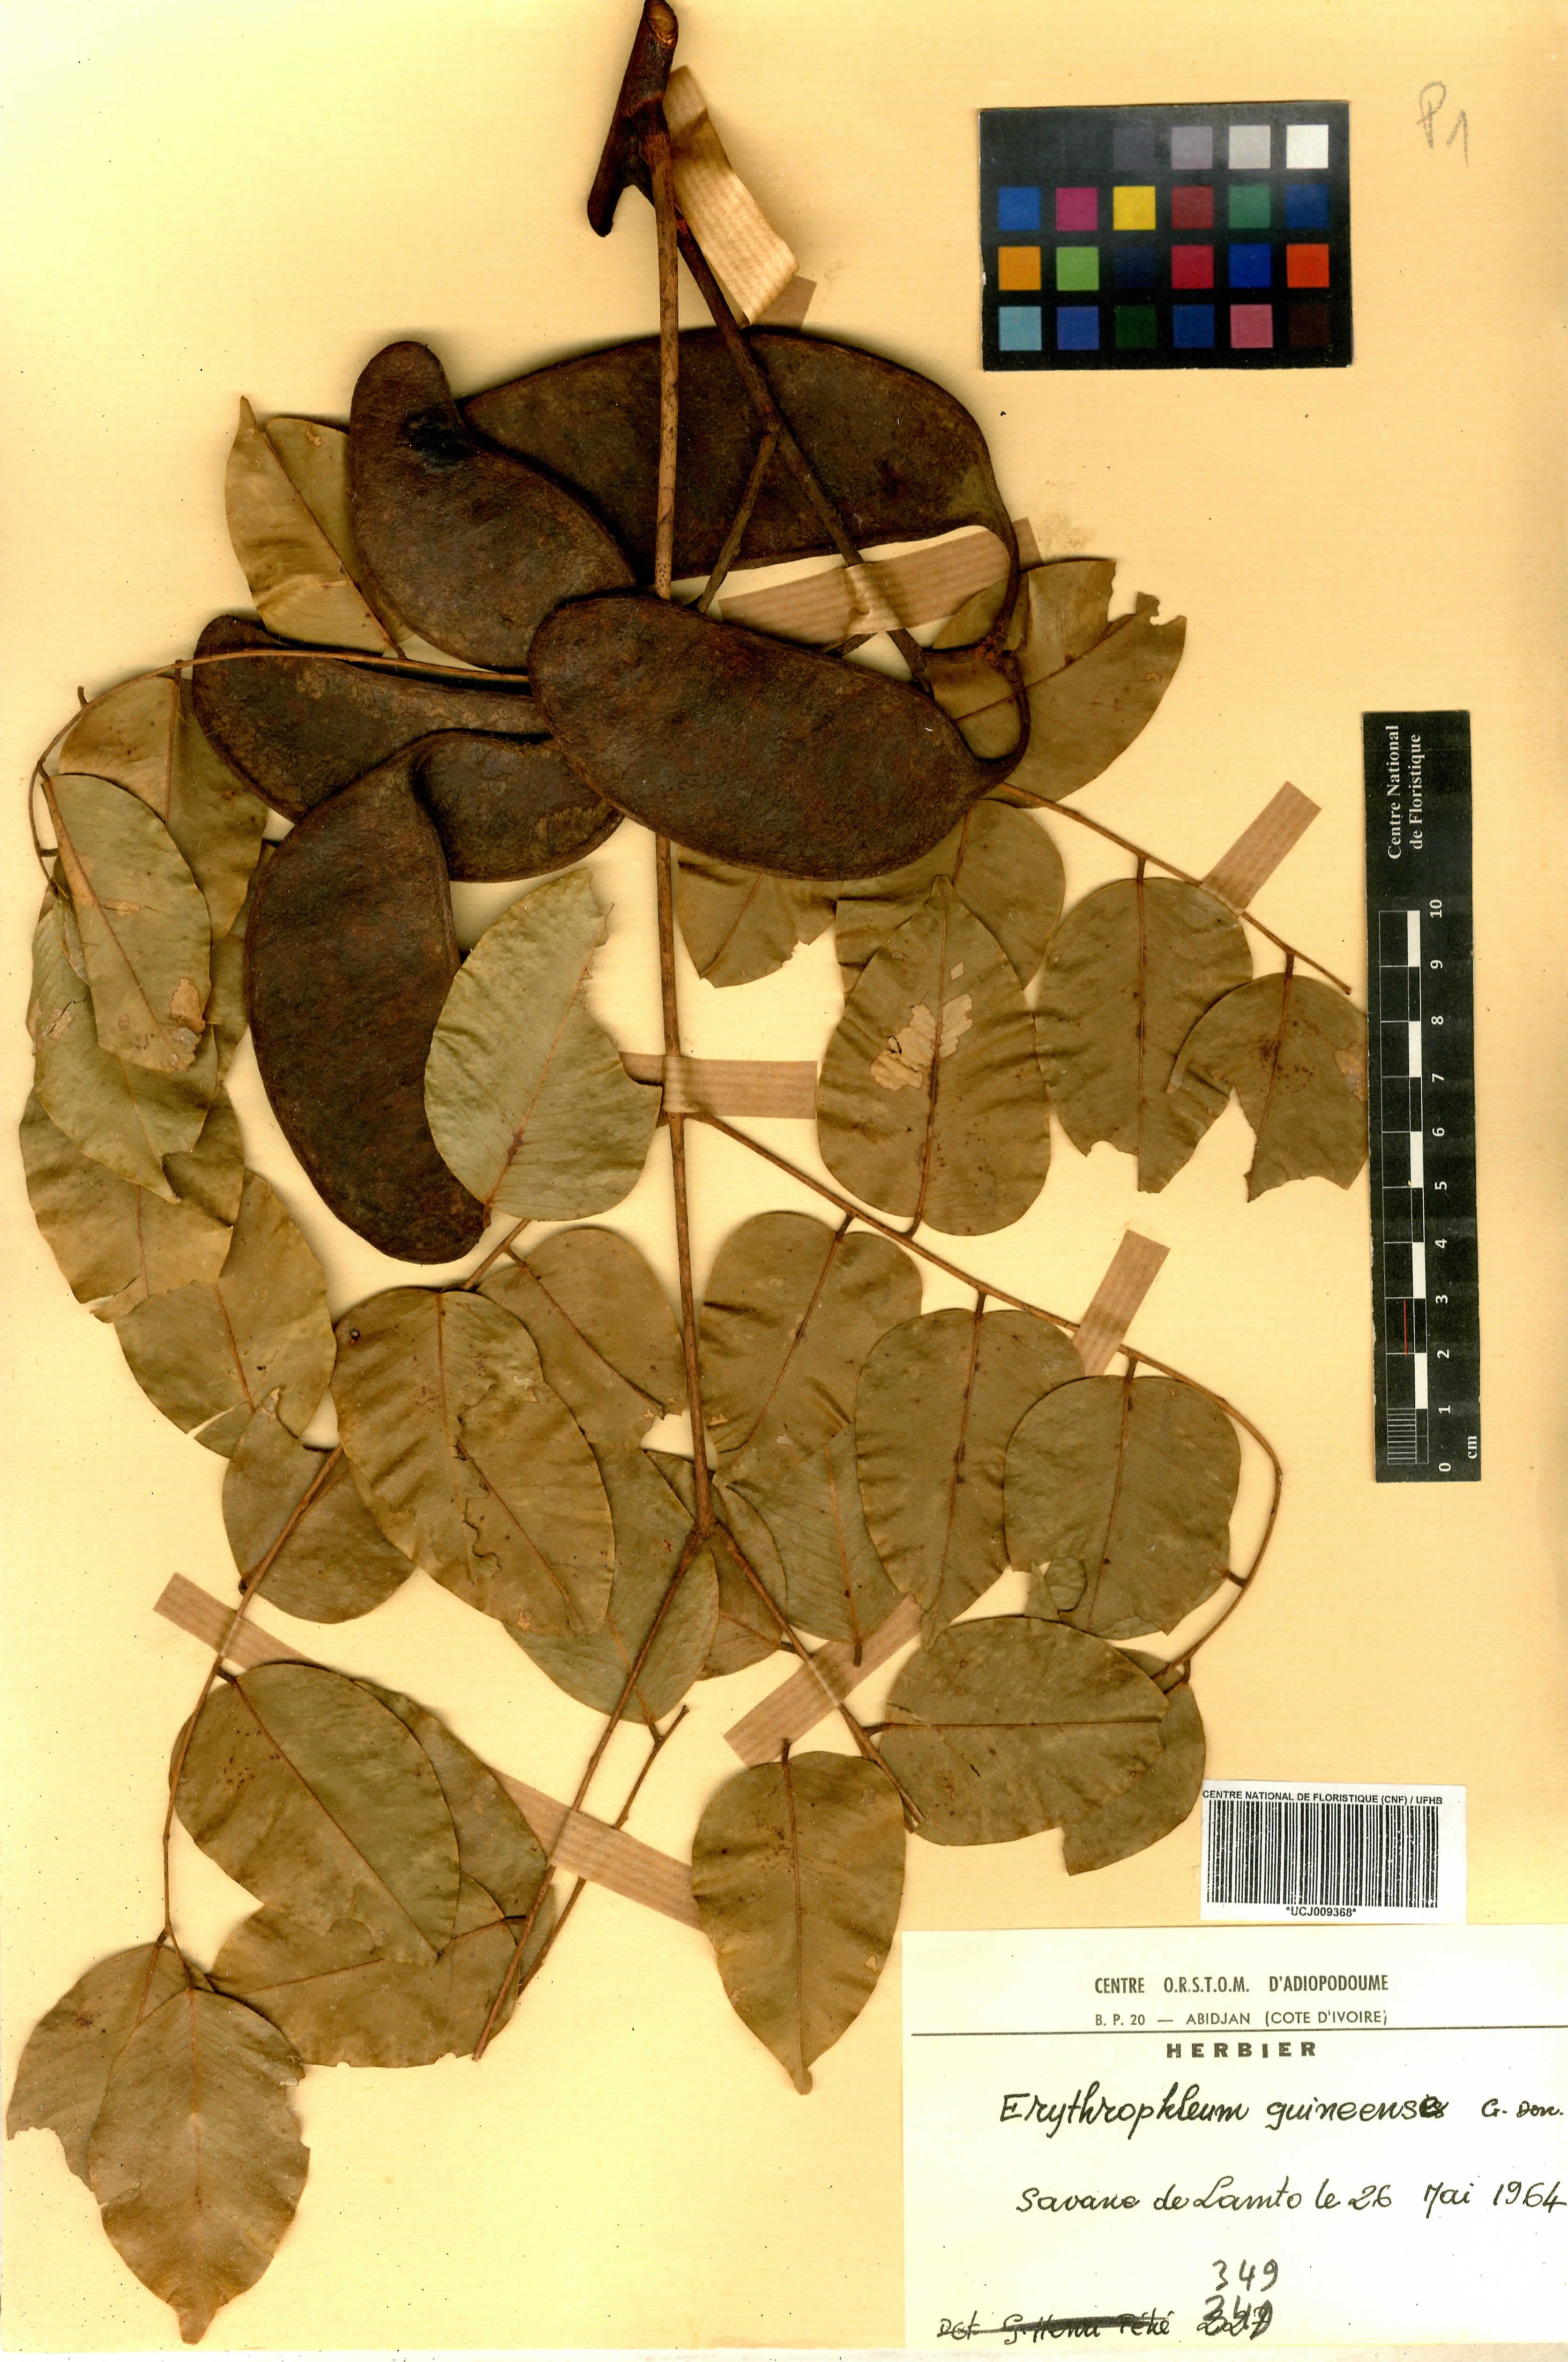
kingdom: Plantae
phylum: Tracheophyta
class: Magnoliopsida
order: Fabales
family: Fabaceae
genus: Erythrophleum
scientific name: Erythrophleum suaveolens
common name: Ordeal tree
